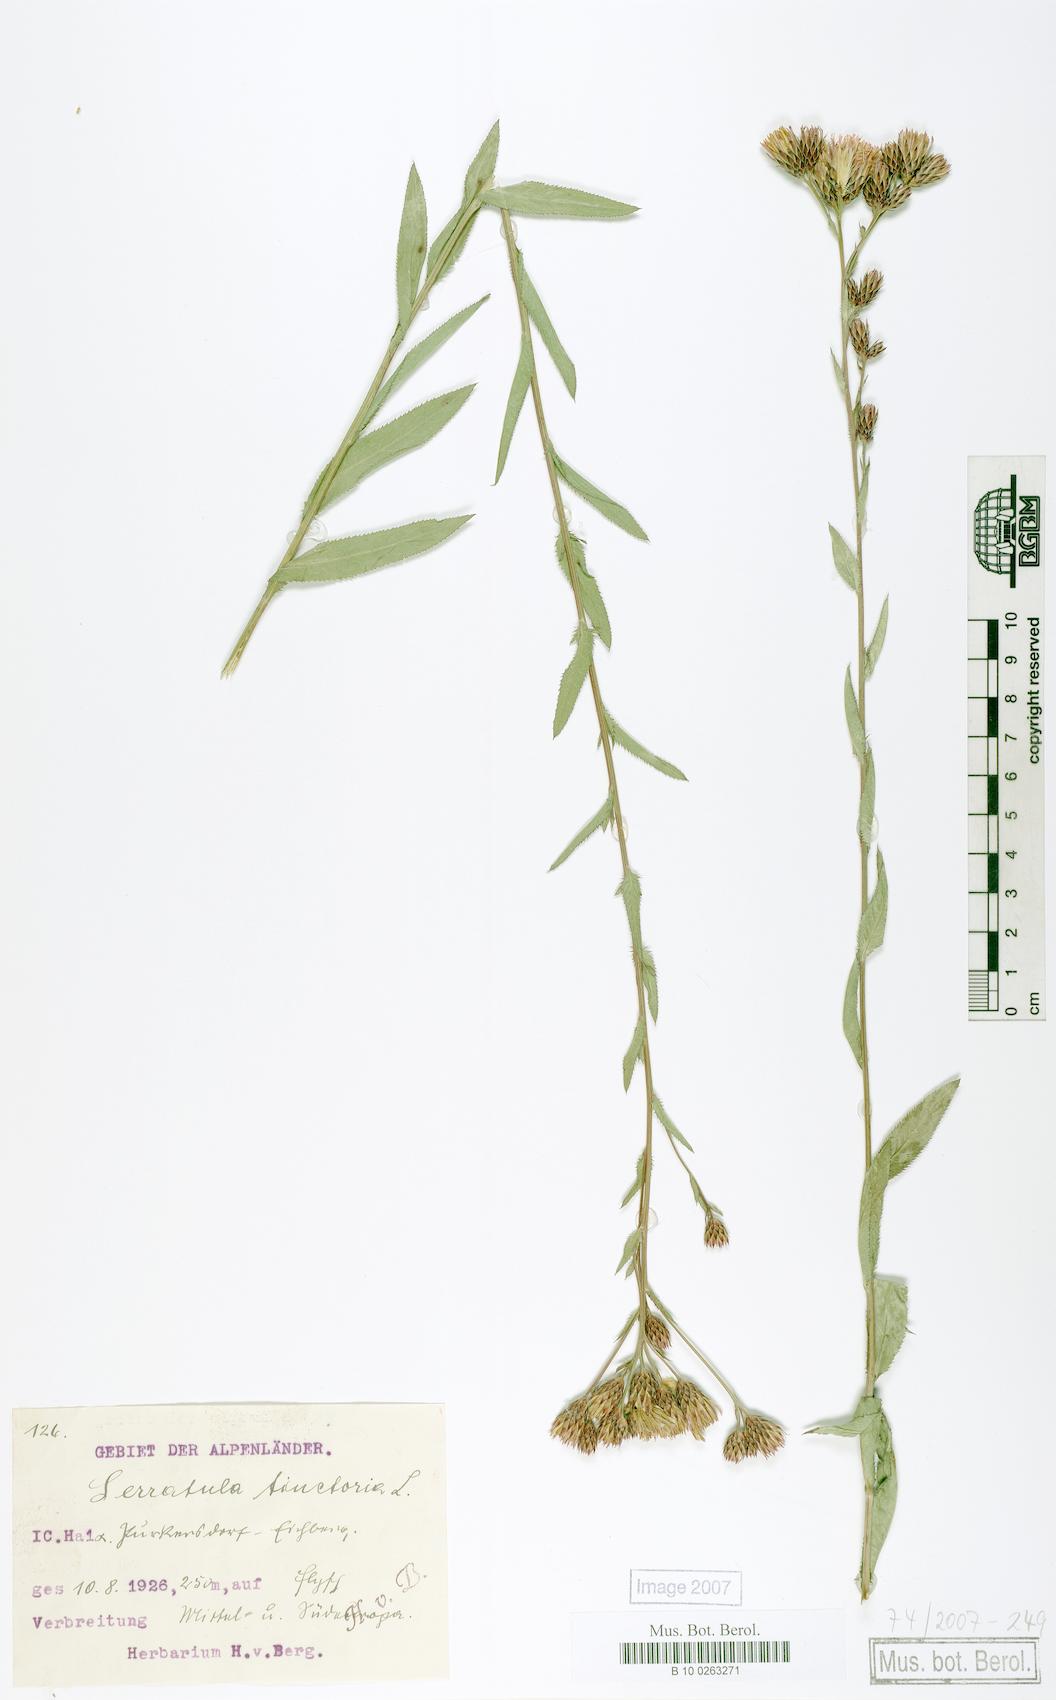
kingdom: Plantae
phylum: Tracheophyta
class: Magnoliopsida
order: Asterales
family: Asteraceae
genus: Serratula
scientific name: Serratula tinctoria
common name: Saw-wort
